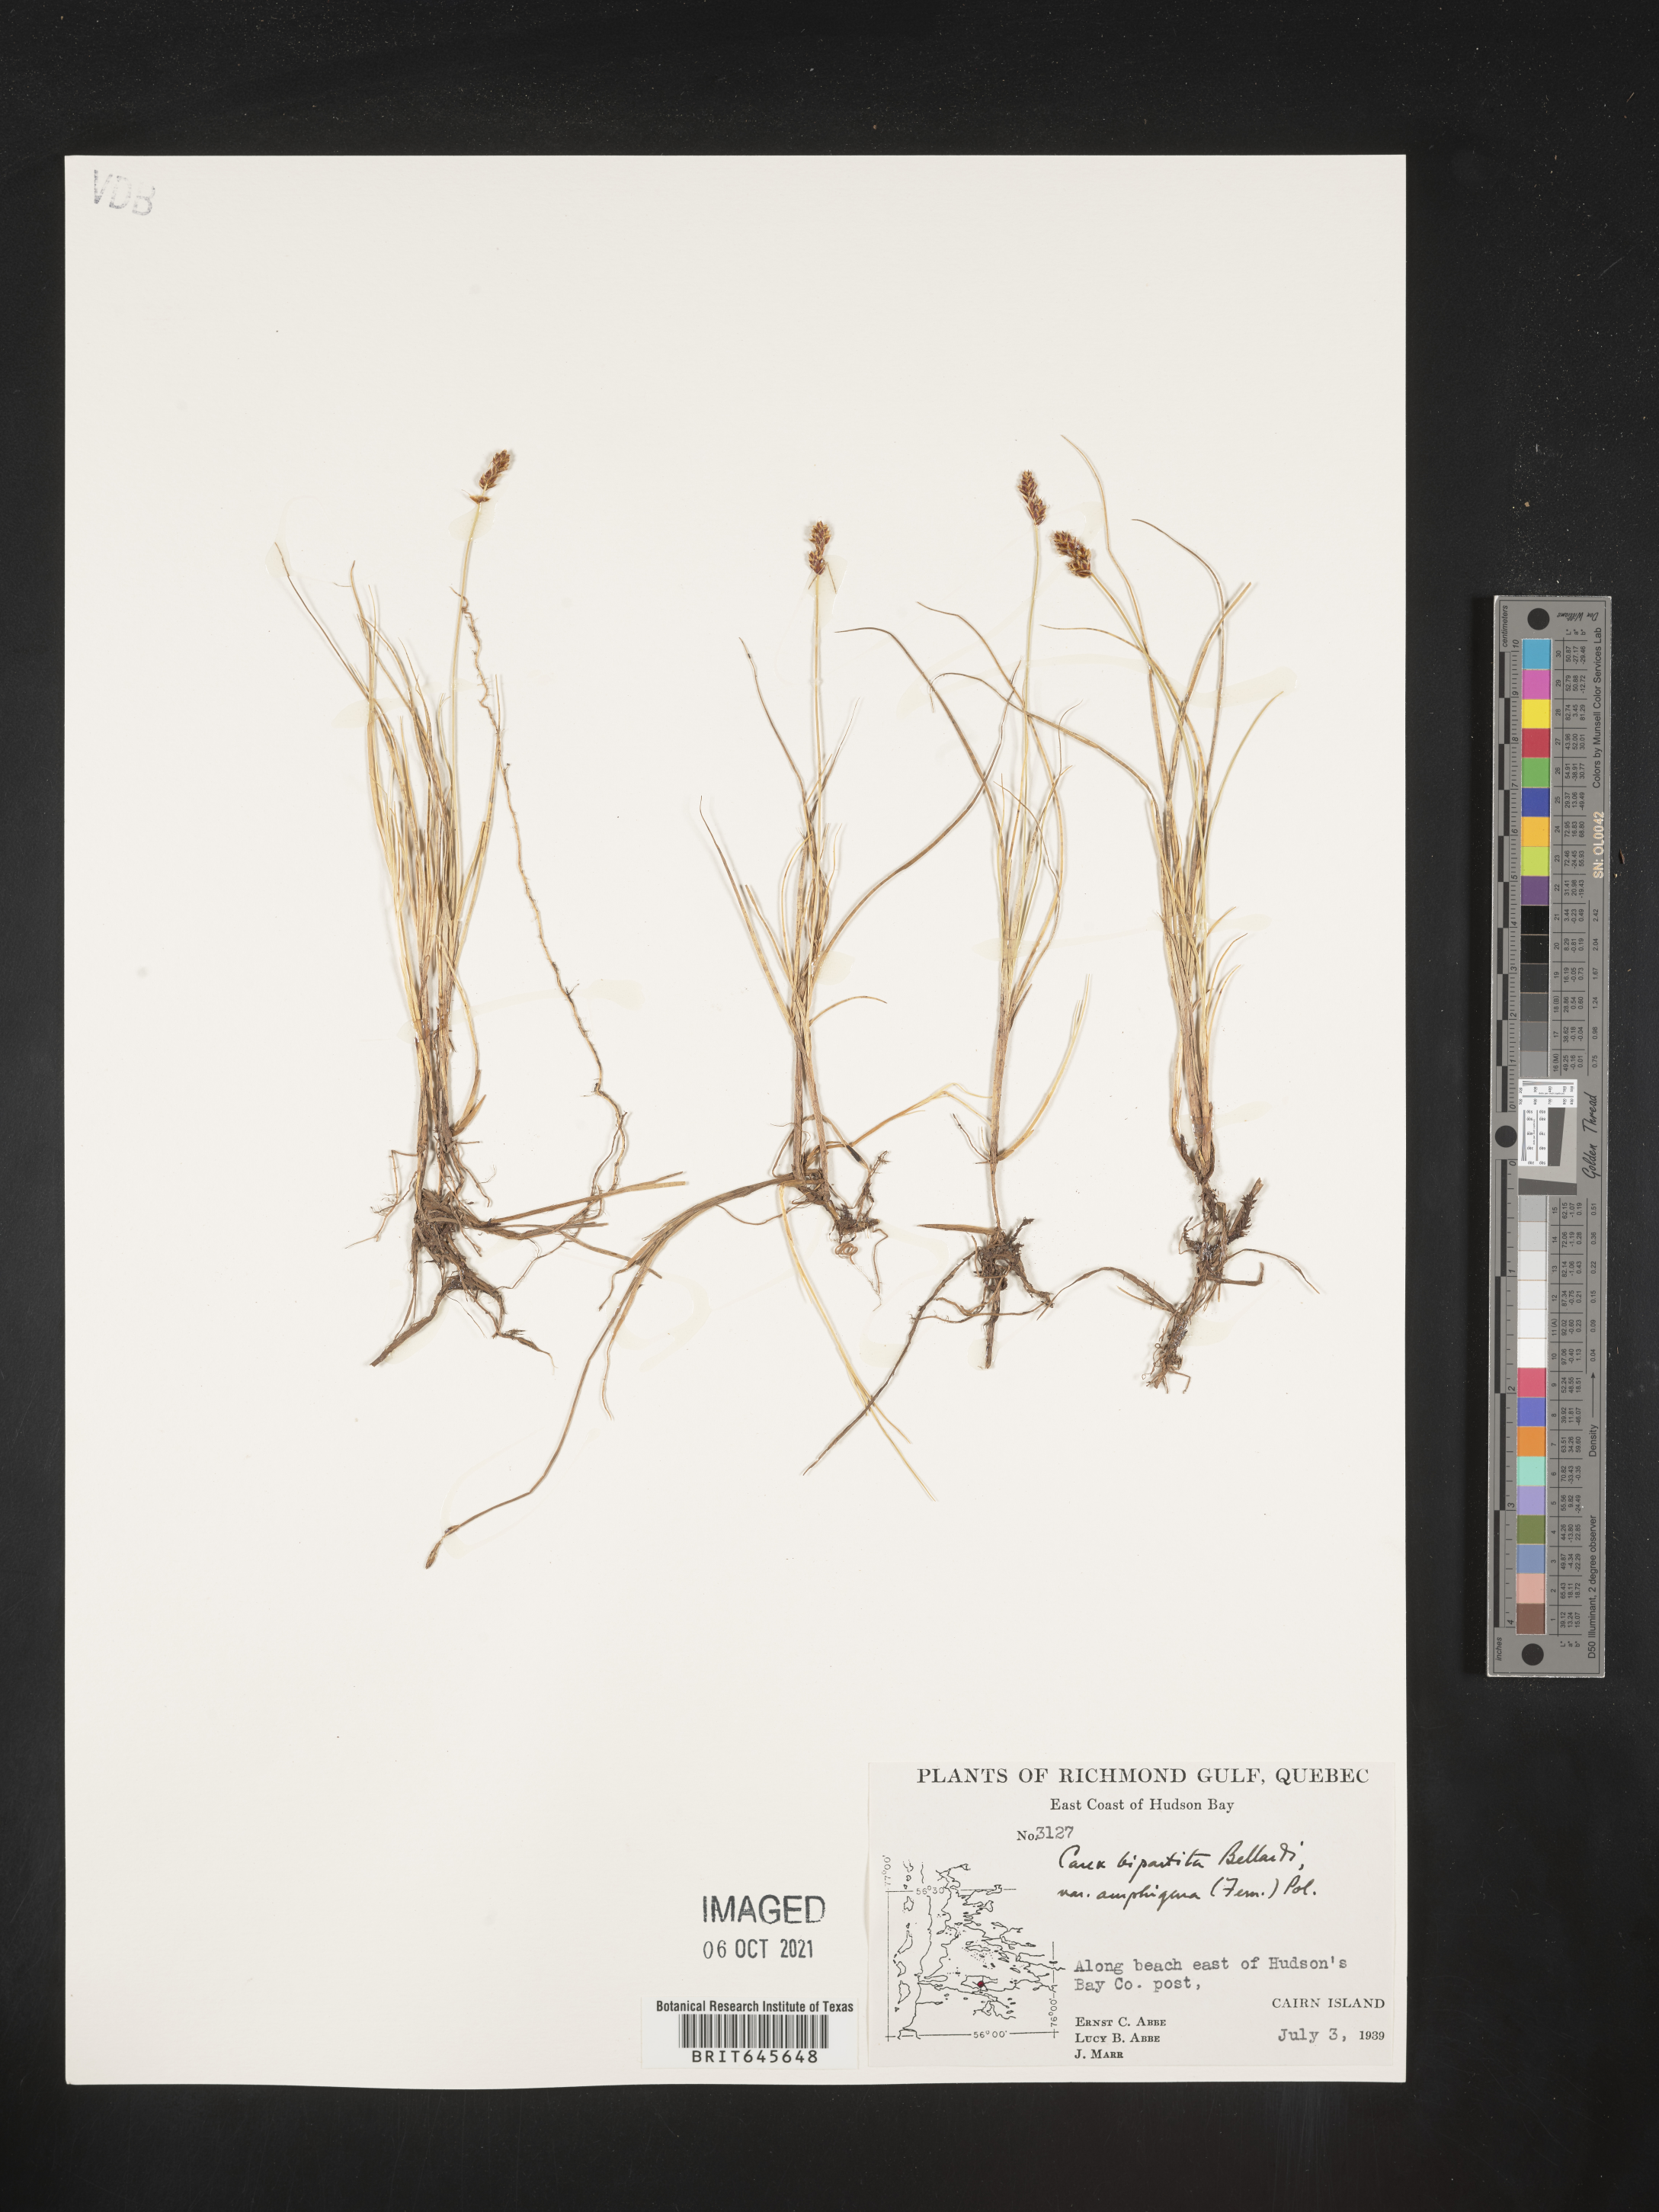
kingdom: Plantae
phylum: Tracheophyta
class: Liliopsida
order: Poales
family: Cyperaceae
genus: Carex
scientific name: Carex glareosa
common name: Clustered sedge
